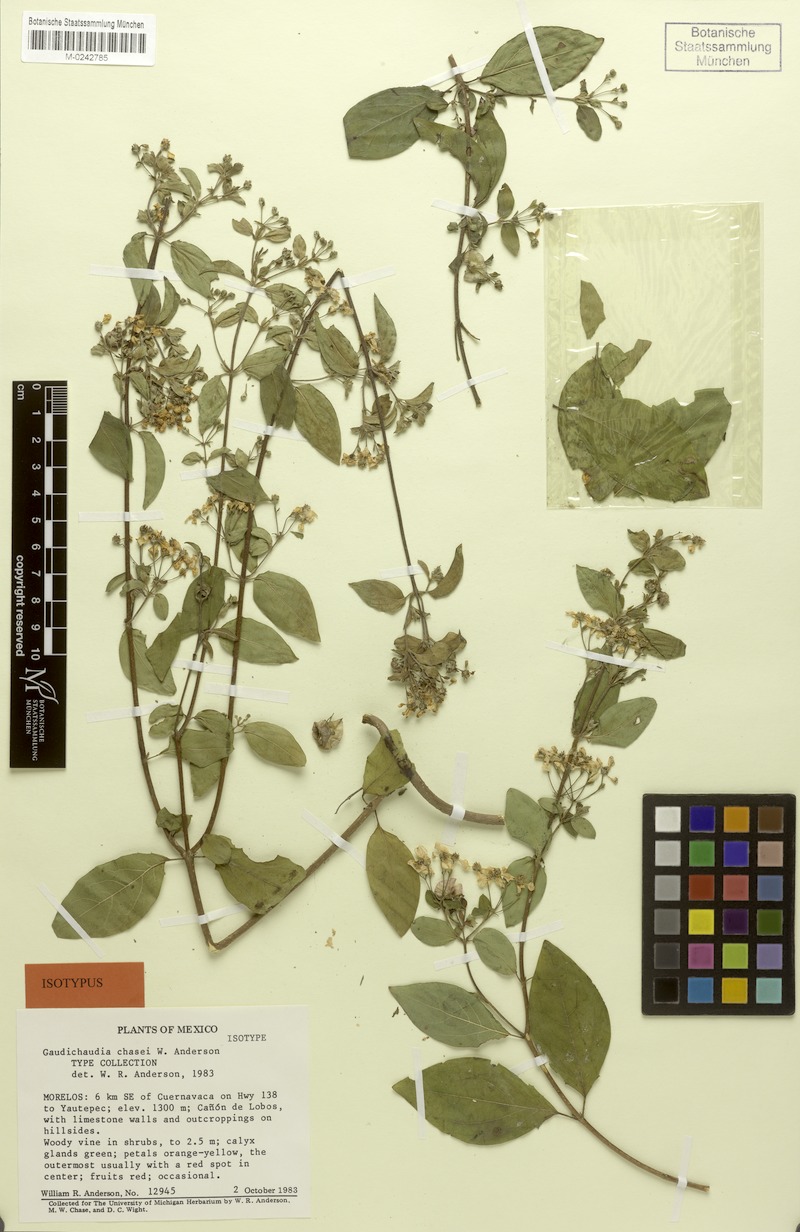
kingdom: Plantae
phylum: Tracheophyta
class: Magnoliopsida
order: Malpighiales
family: Malpighiaceae
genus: Gaudichaudia
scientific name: Gaudichaudia chasei
